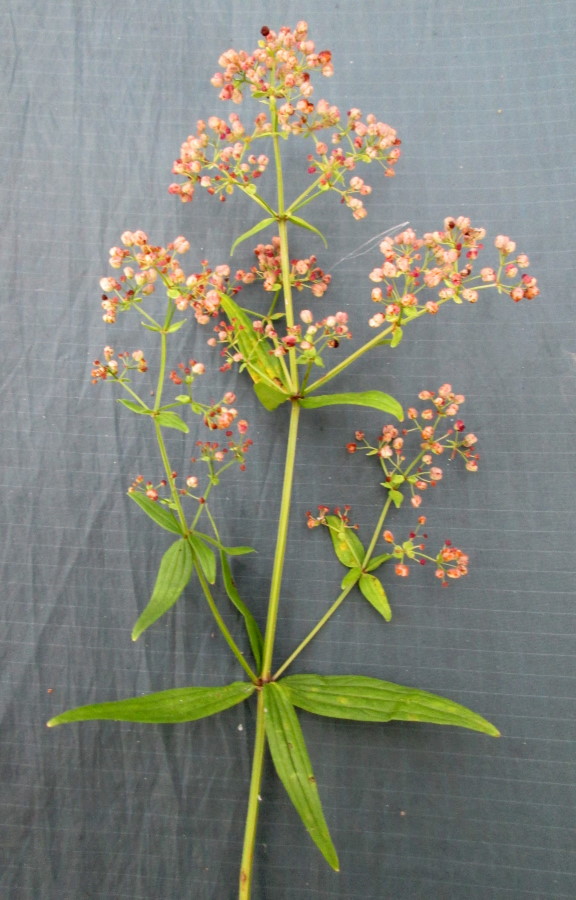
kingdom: Plantae
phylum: Tracheophyta
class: Magnoliopsida
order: Gentianales
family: Rubiaceae
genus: Galium
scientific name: Galium rubioides
